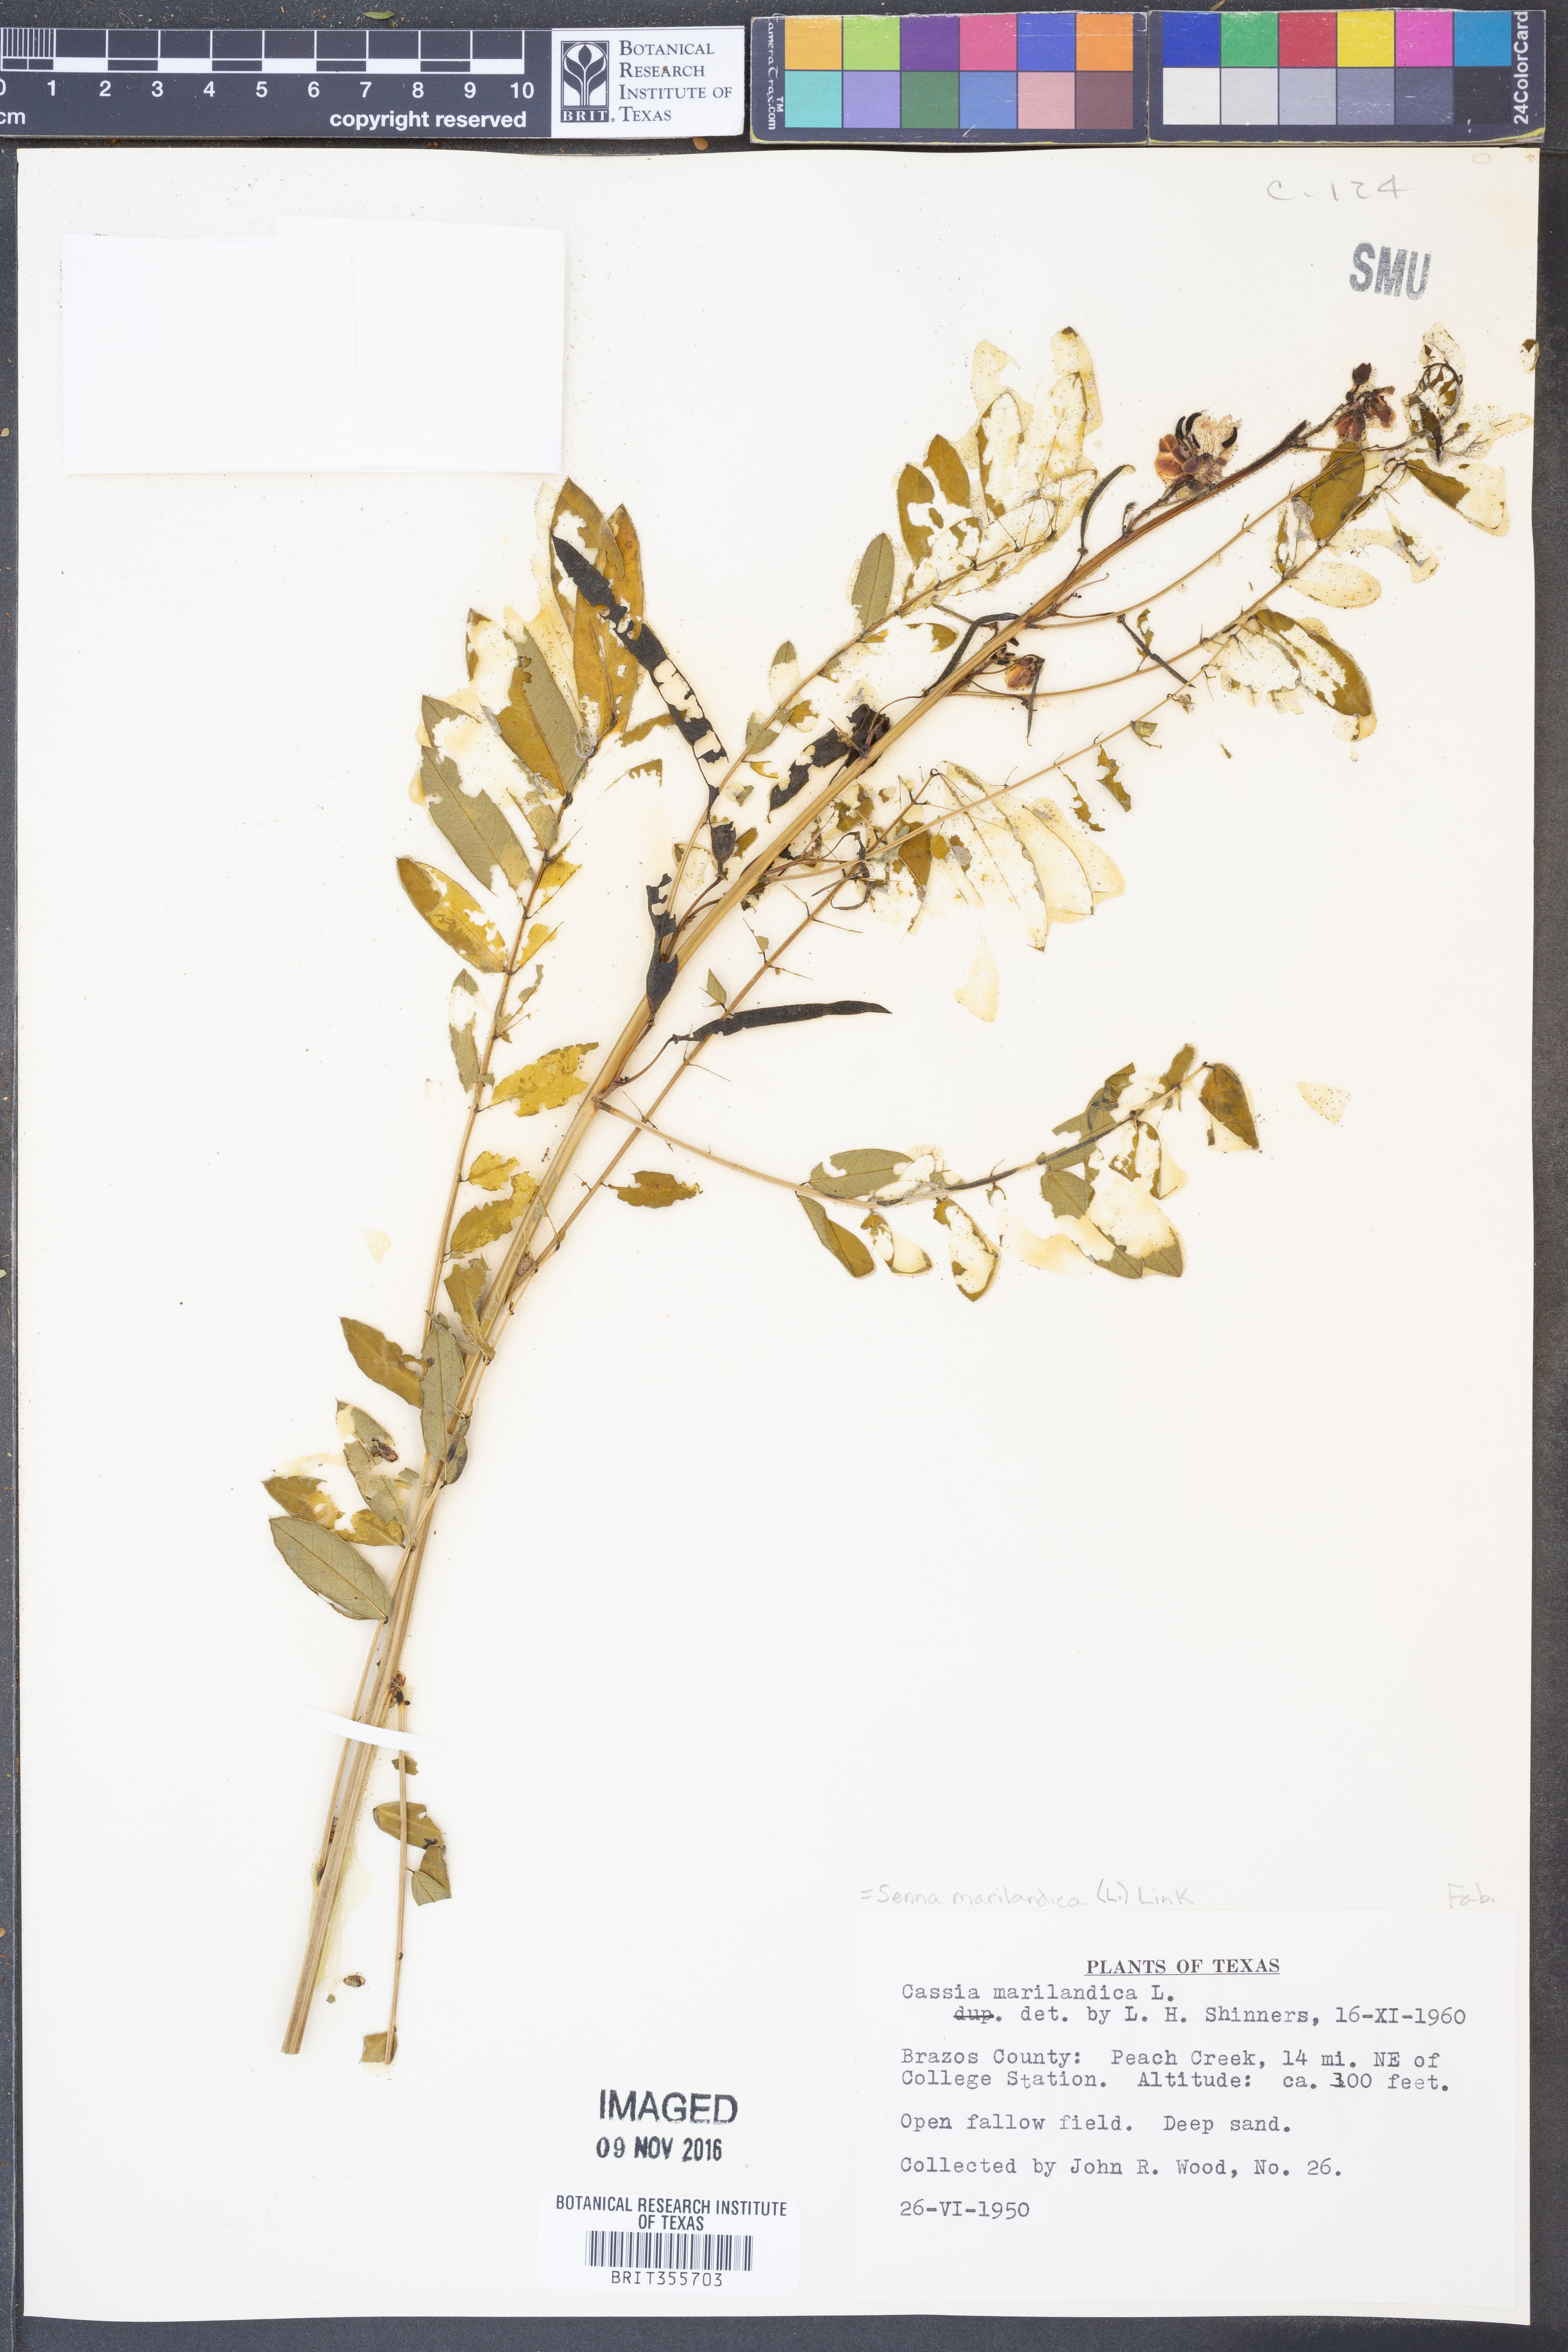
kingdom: Plantae
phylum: Tracheophyta
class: Magnoliopsida
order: Fabales
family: Fabaceae
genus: Senna
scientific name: Senna marilandica
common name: American senna
